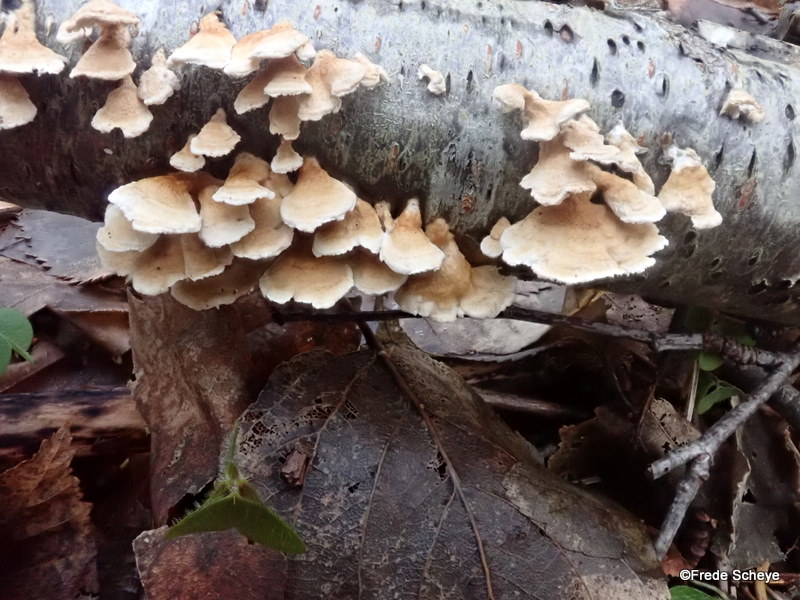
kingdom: Fungi
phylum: Basidiomycota
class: Agaricomycetes
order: Amylocorticiales
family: Amylocorticiaceae
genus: Plicaturopsis
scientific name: Plicaturopsis crispa
